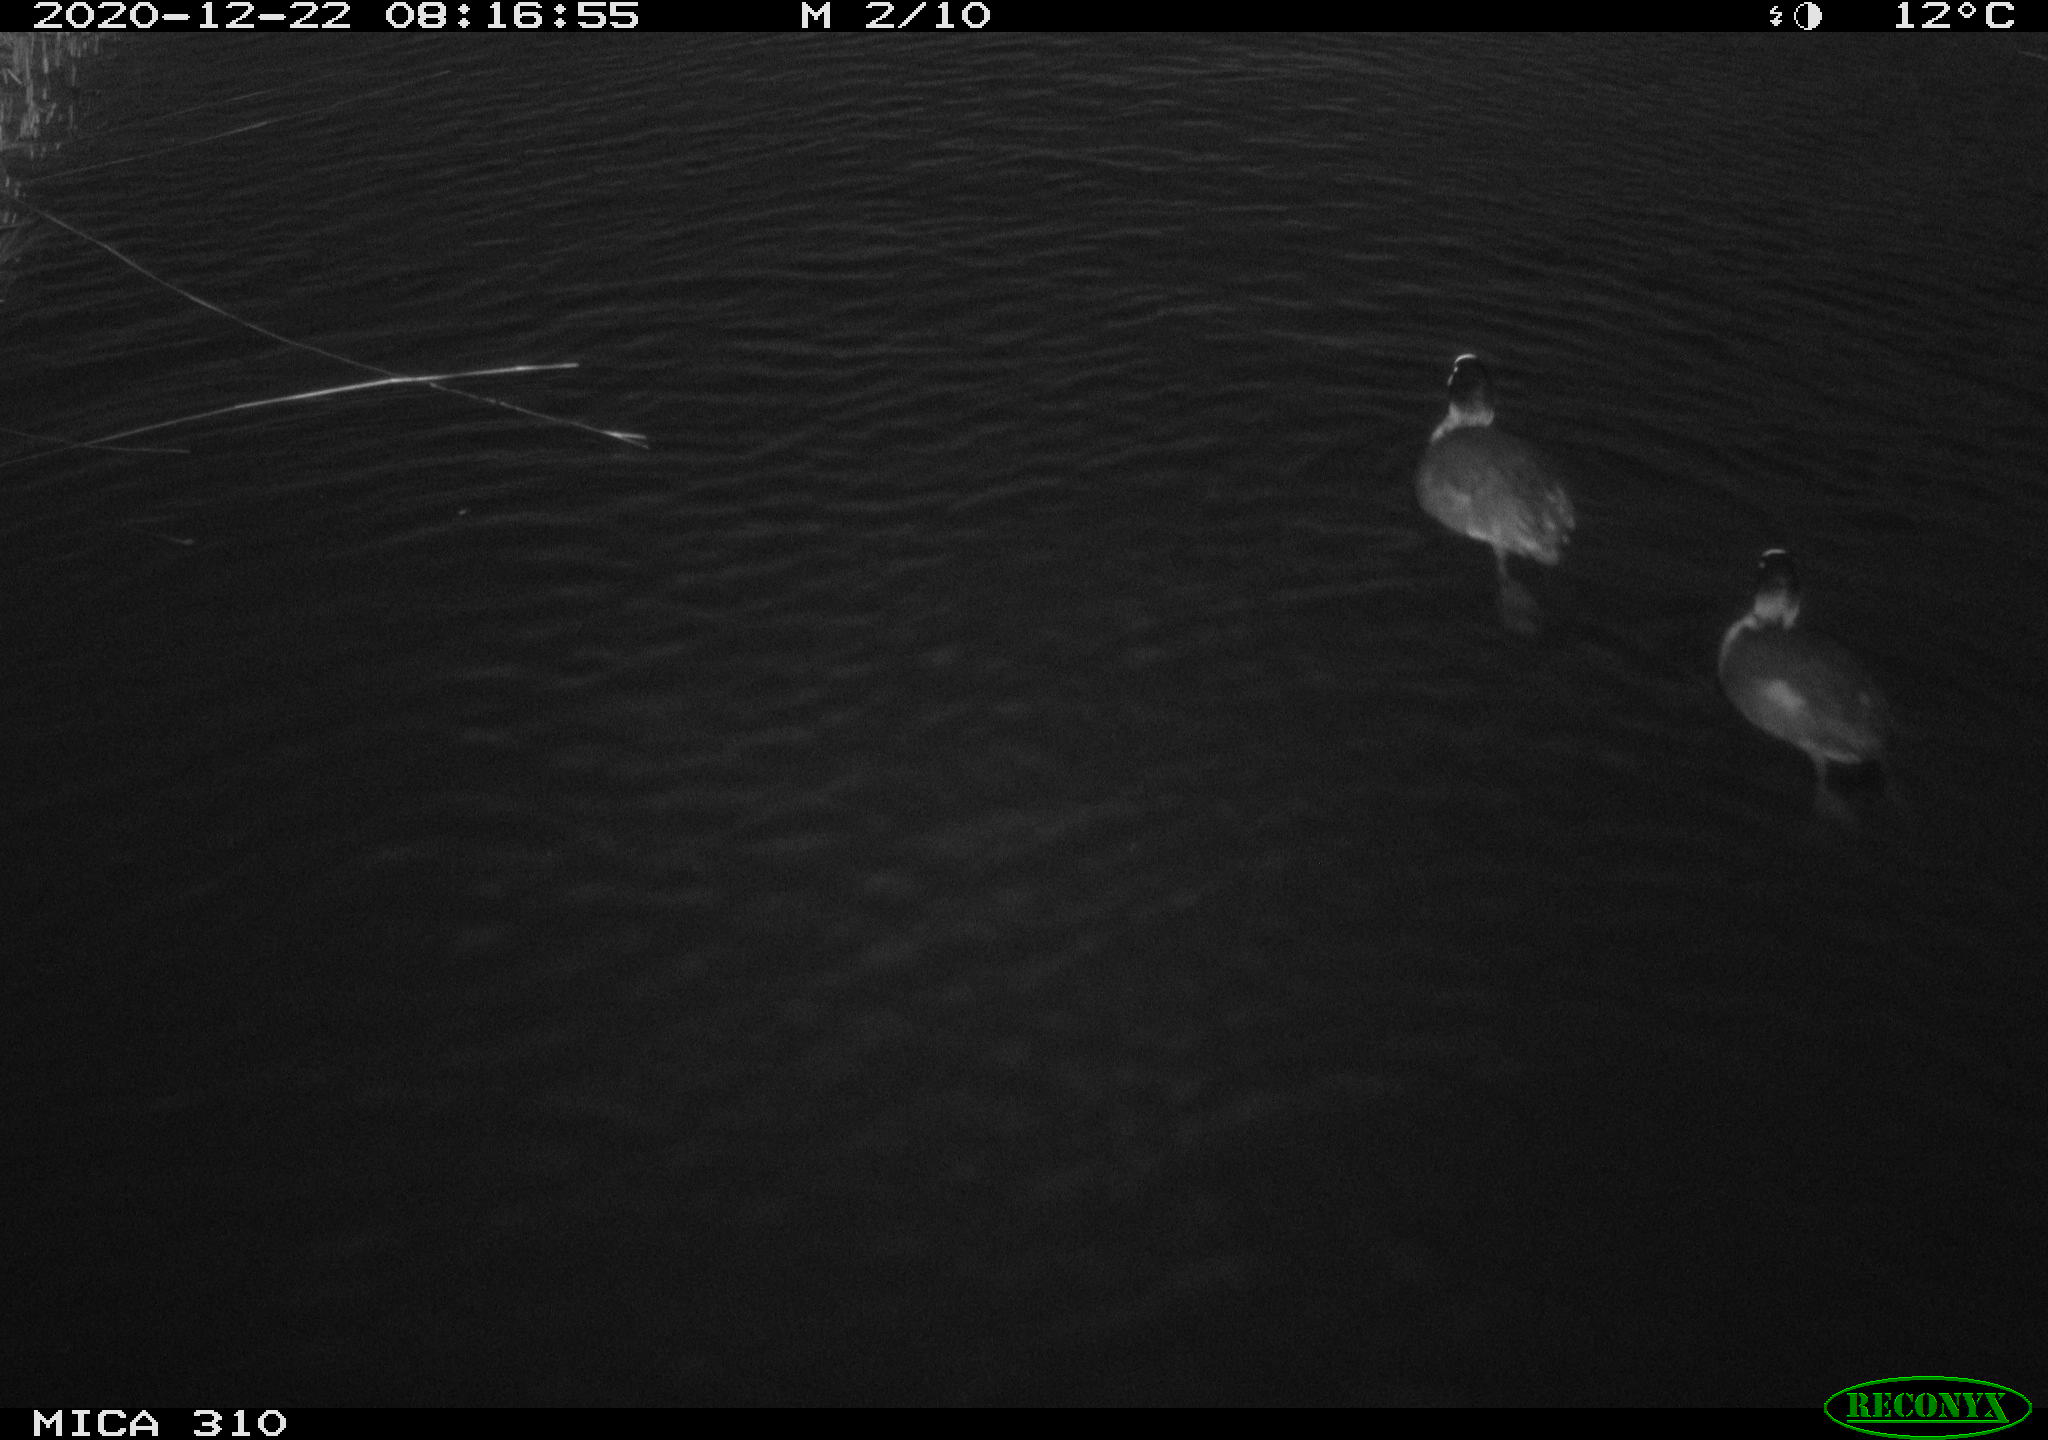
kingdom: Animalia
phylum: Chordata
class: Aves
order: Gruiformes
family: Rallidae
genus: Fulica
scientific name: Fulica atra
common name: Eurasian coot
